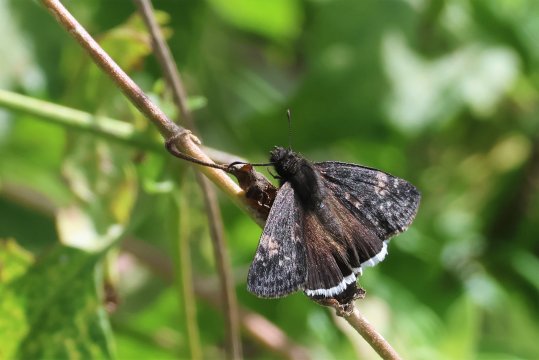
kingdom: Animalia
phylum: Arthropoda
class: Insecta
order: Lepidoptera
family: Hesperiidae
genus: Erynnis
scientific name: Erynnis funeralis
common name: Funereal Duskywing
